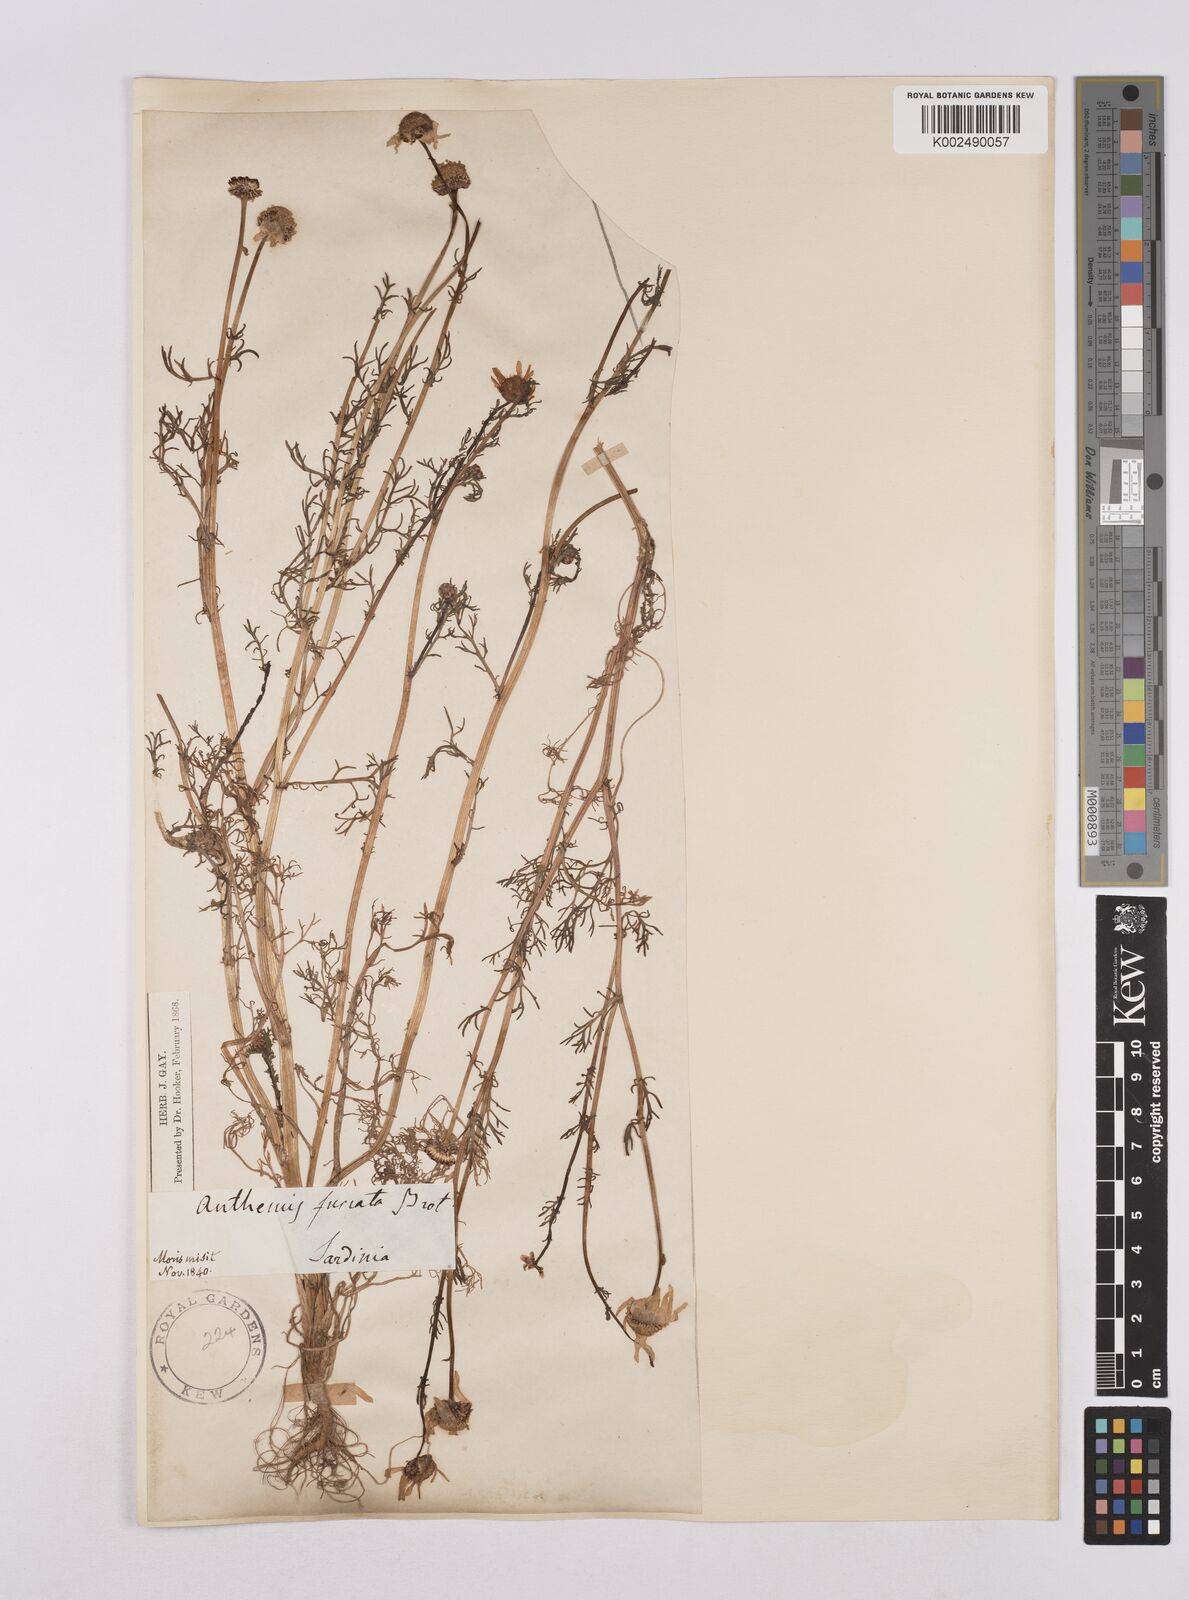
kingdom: Plantae
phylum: Tracheophyta
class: Magnoliopsida
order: Asterales
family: Asteraceae
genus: Chamaemelum
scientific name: Chamaemelum fuscatum
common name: Chamomile
